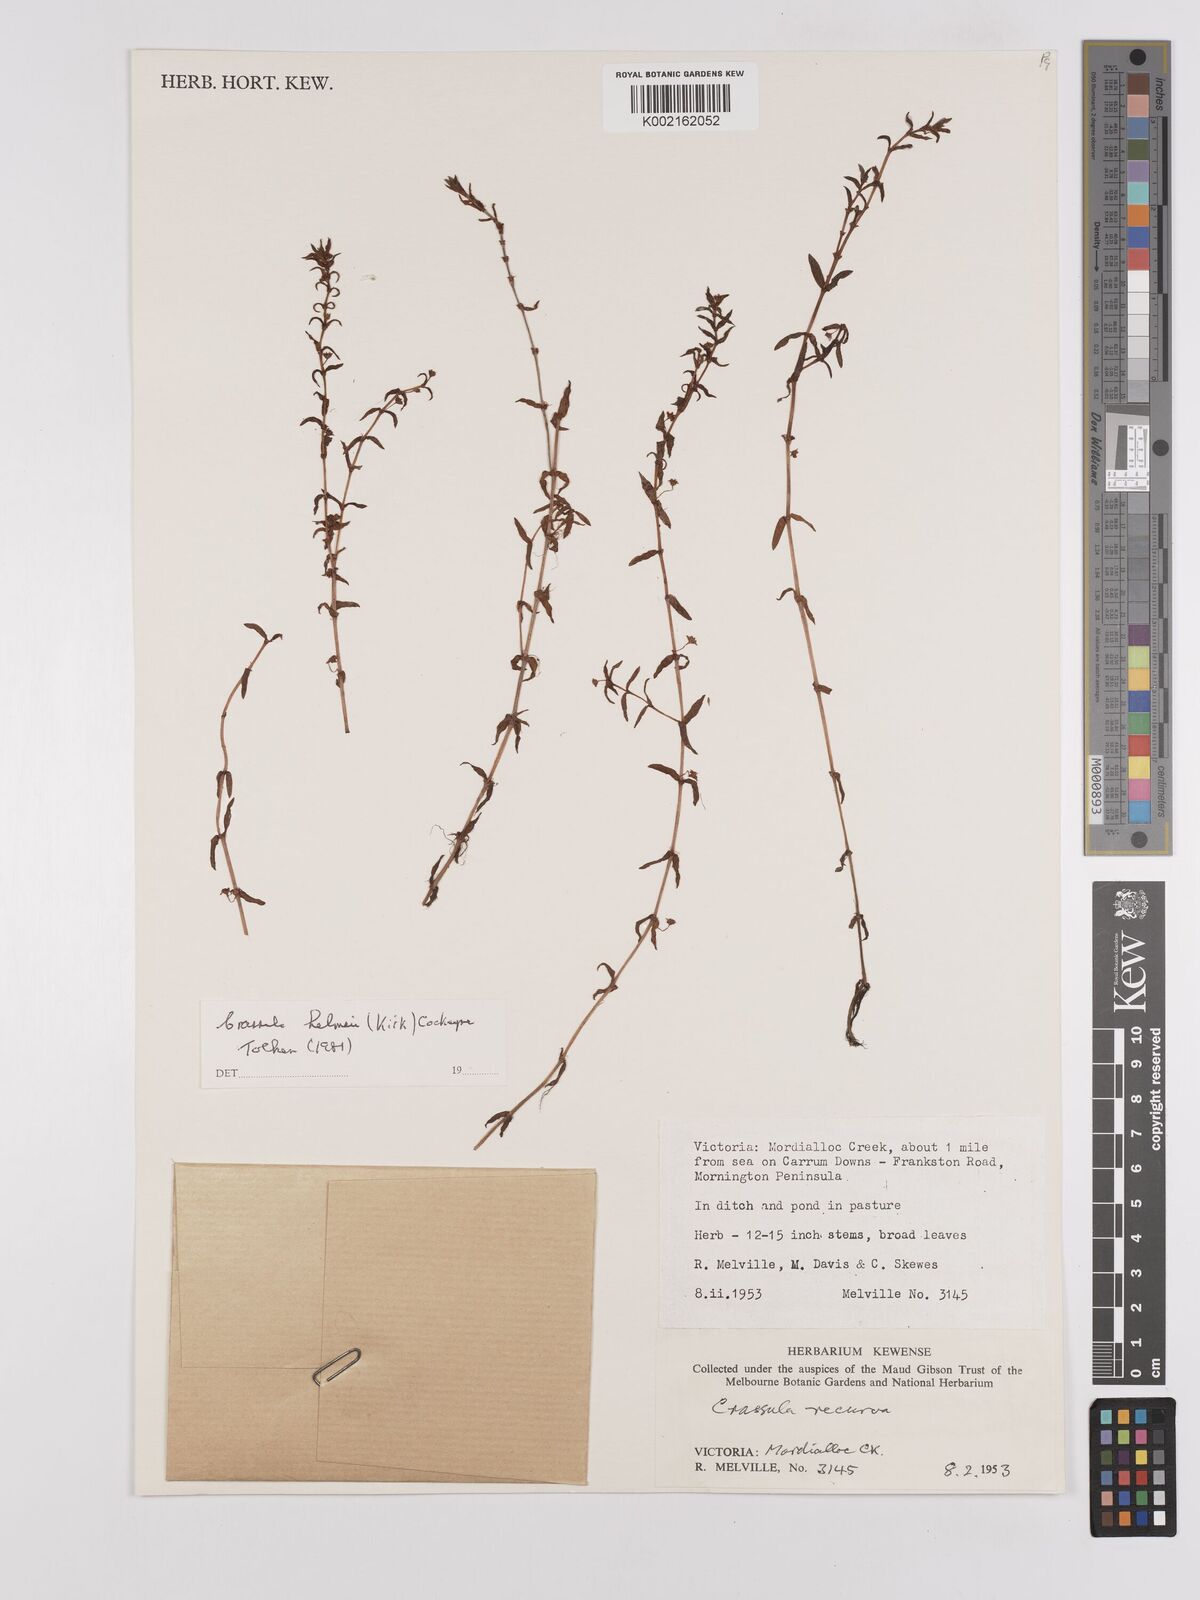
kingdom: Plantae
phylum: Tracheophyta
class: Magnoliopsida
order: Saxifragales
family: Crassulaceae
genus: Crassula
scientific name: Crassula helmsii
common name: New zealand pigmyweed
